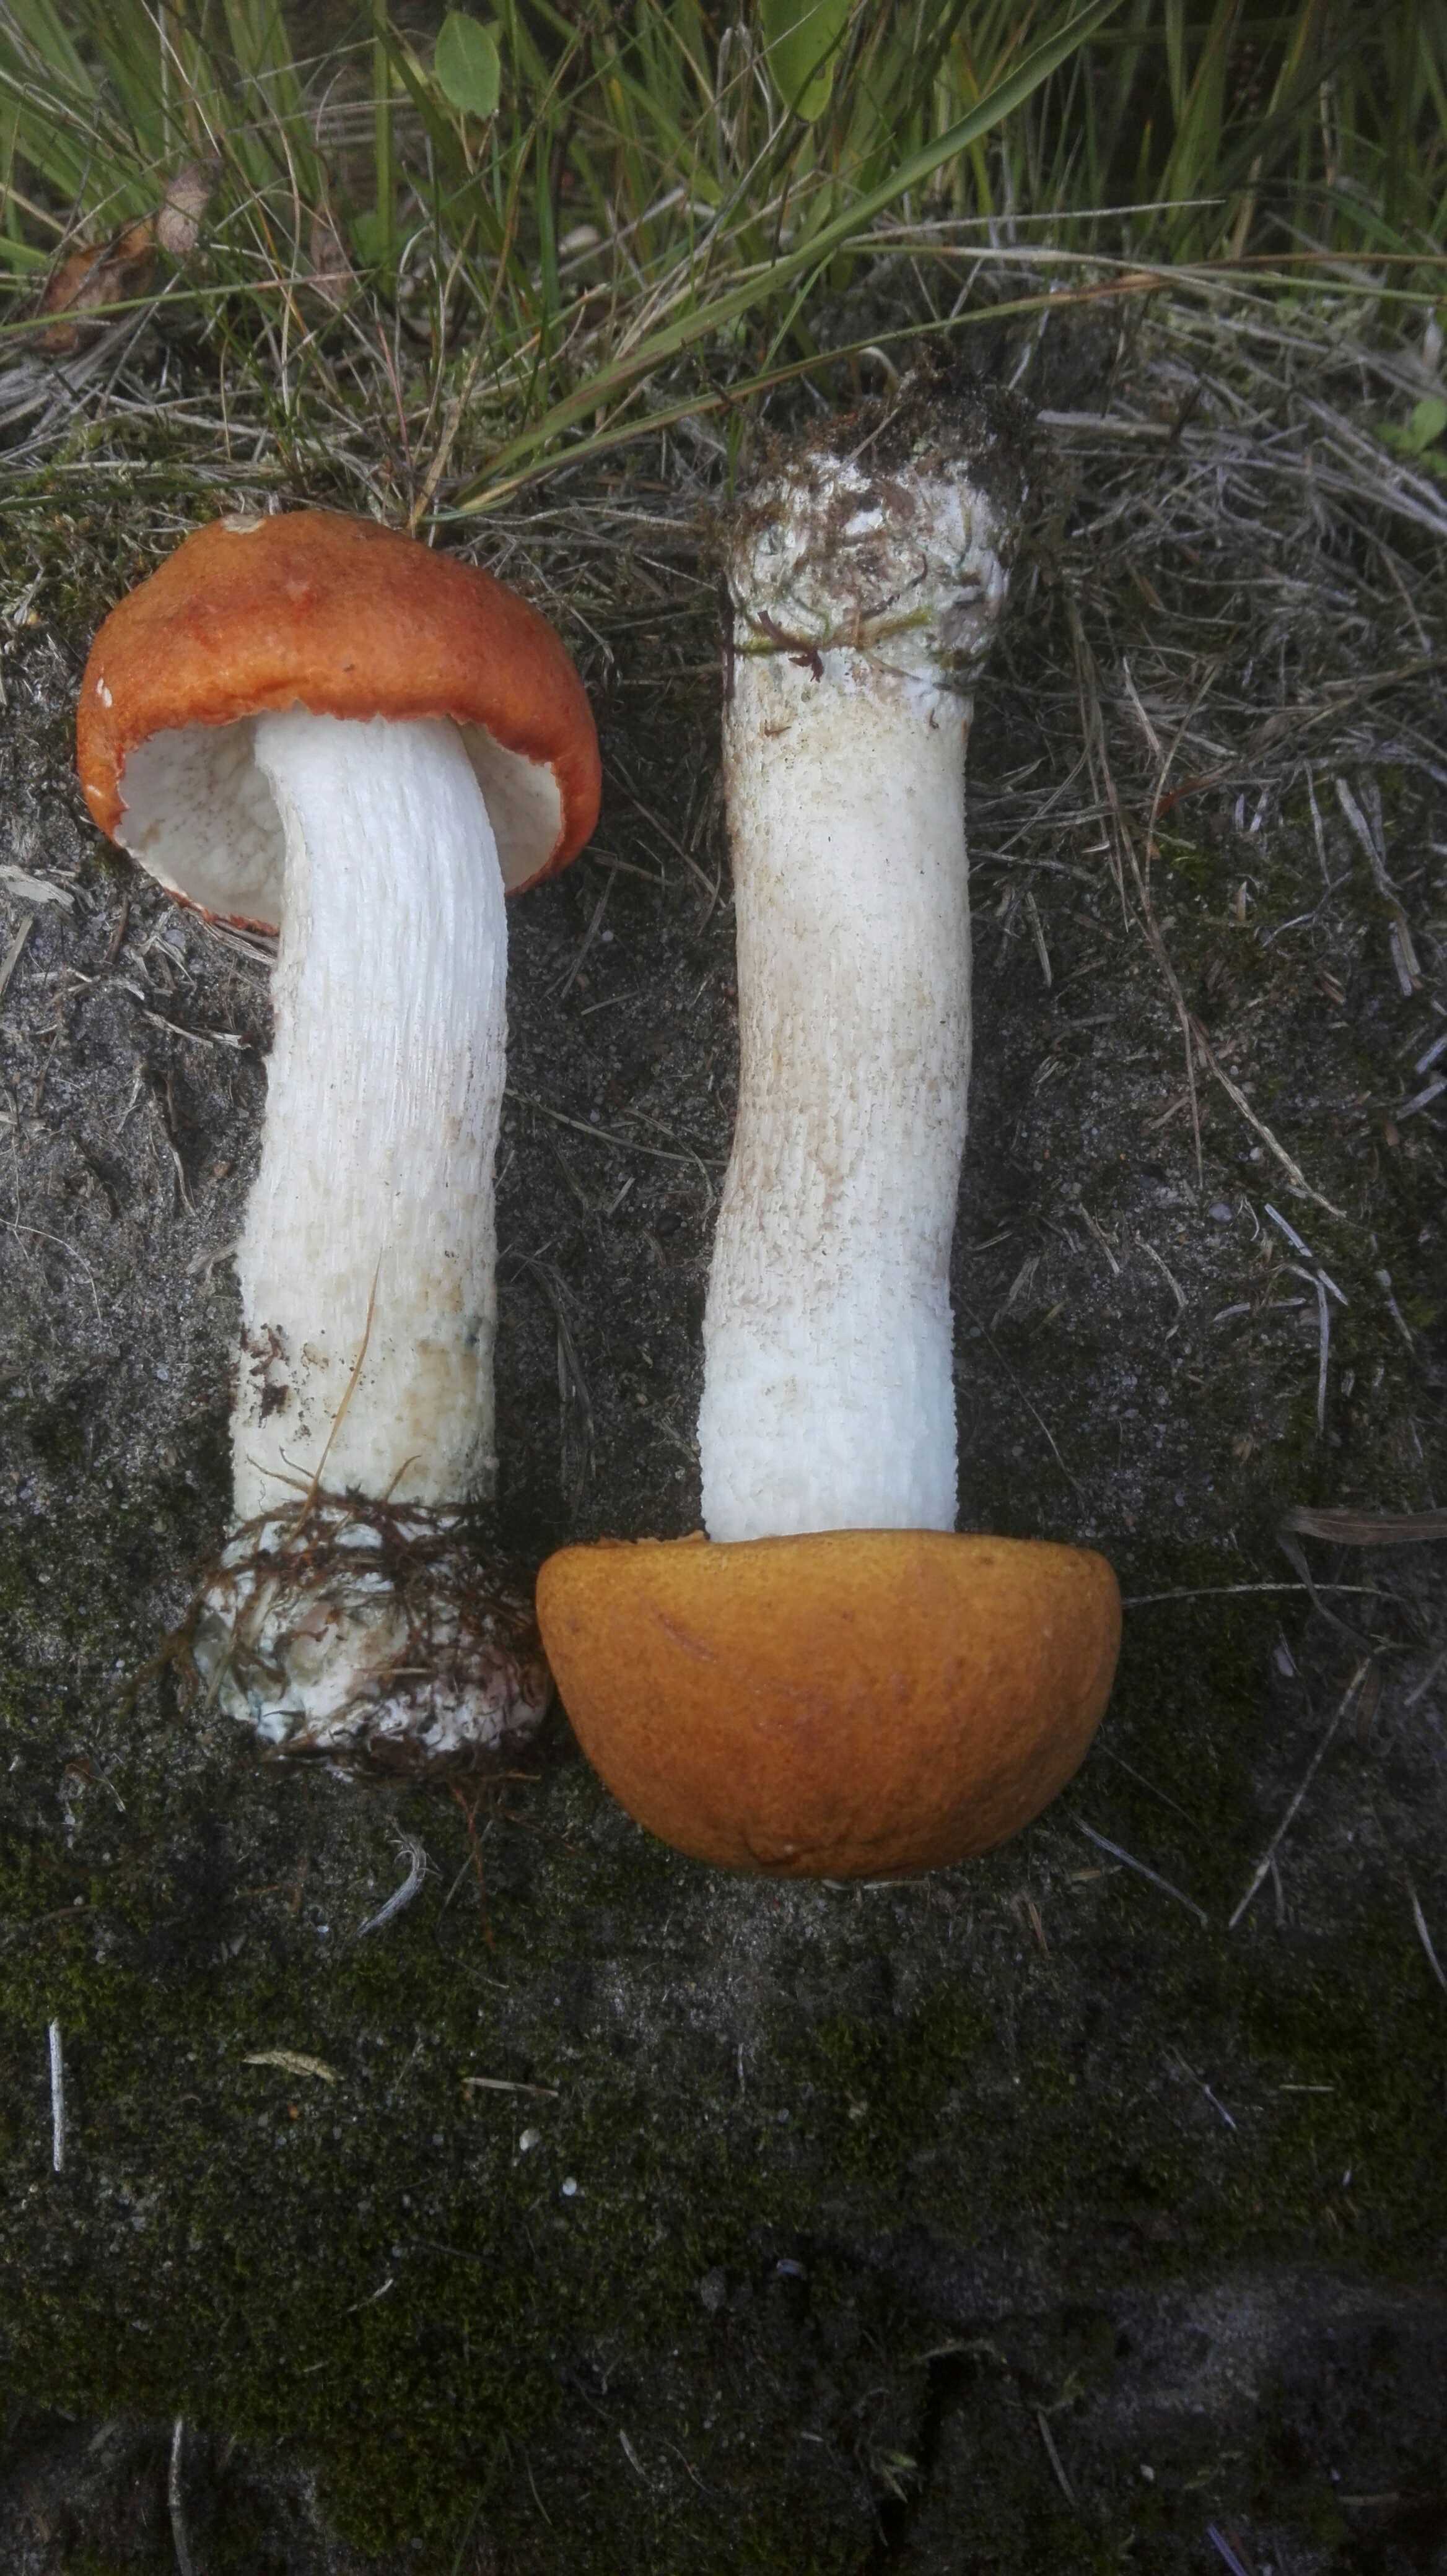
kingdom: Fungi
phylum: Basidiomycota
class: Agaricomycetes
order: Boletales
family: Boletaceae
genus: Leccinum
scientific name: Leccinum albostipitatum
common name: aspe-skælrørhat
